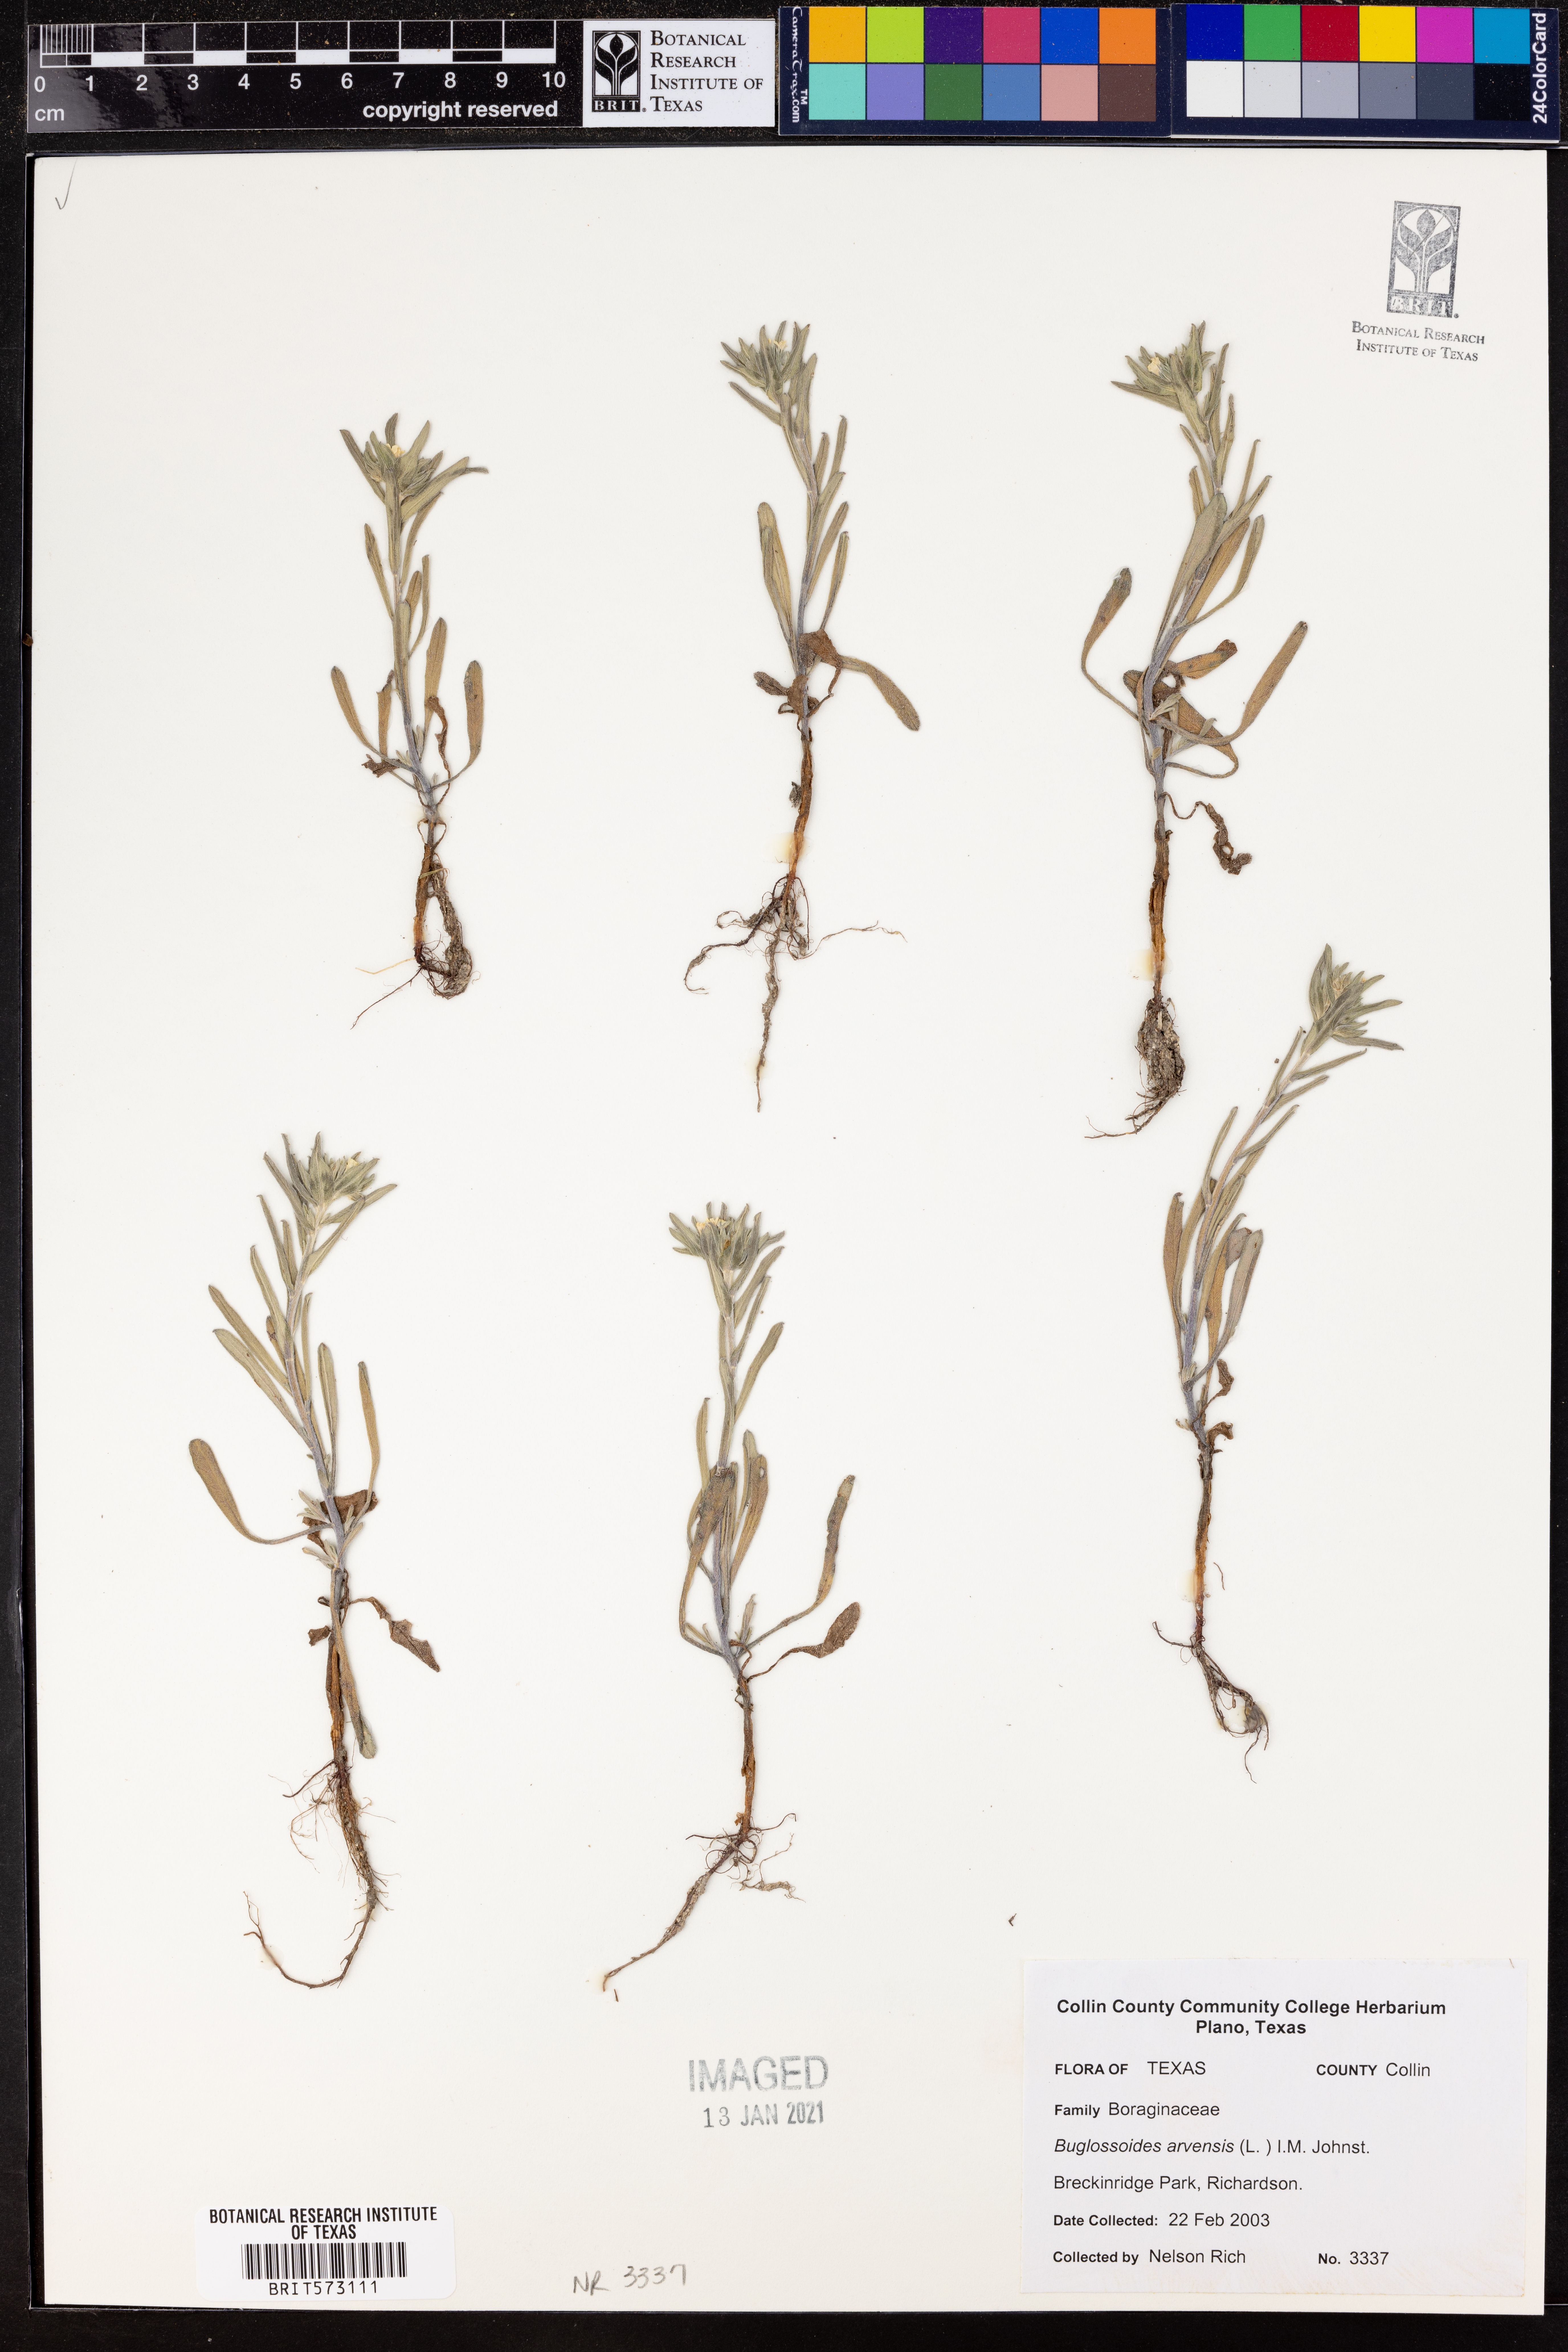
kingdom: Plantae
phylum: Tracheophyta
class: Magnoliopsida
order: Boraginales
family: Boraginaceae
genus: Buglossoides
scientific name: Buglossoides arvensis
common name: Corn gromwell
